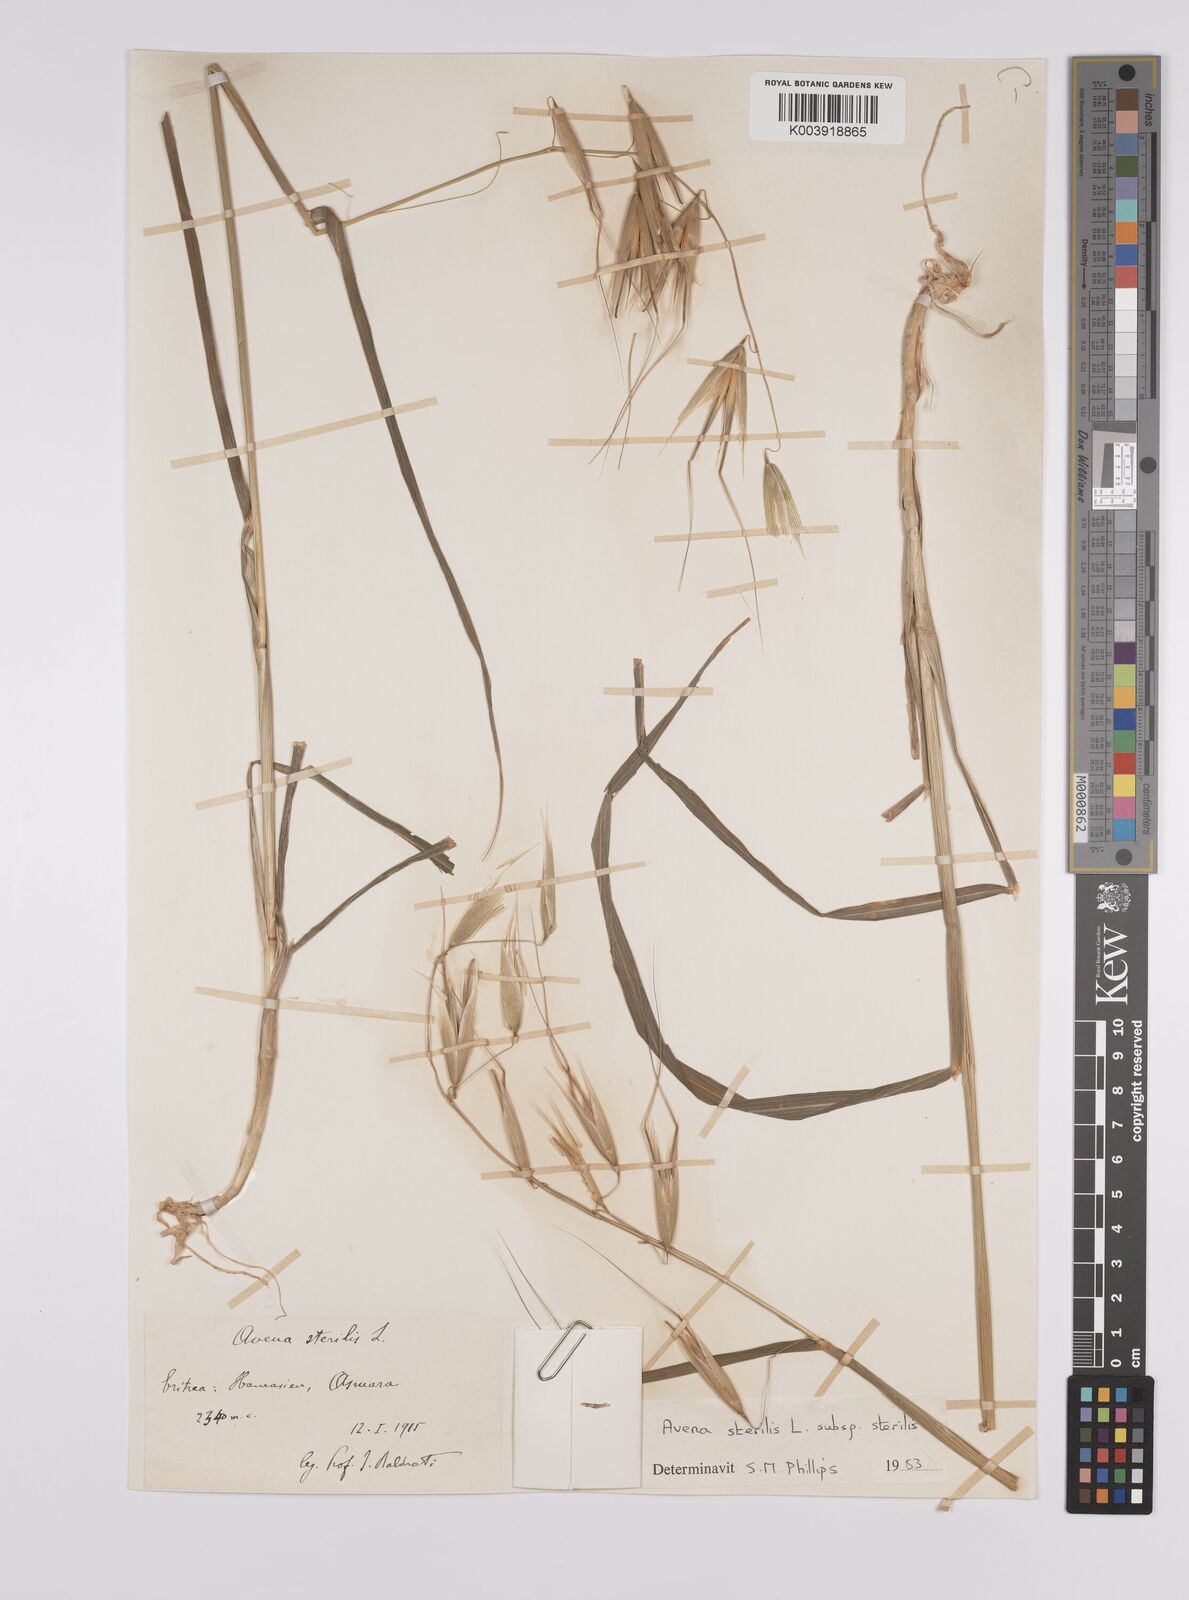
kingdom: Plantae
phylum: Tracheophyta
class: Liliopsida
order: Poales
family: Poaceae
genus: Avena
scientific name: Avena sterilis
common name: Animated oat
